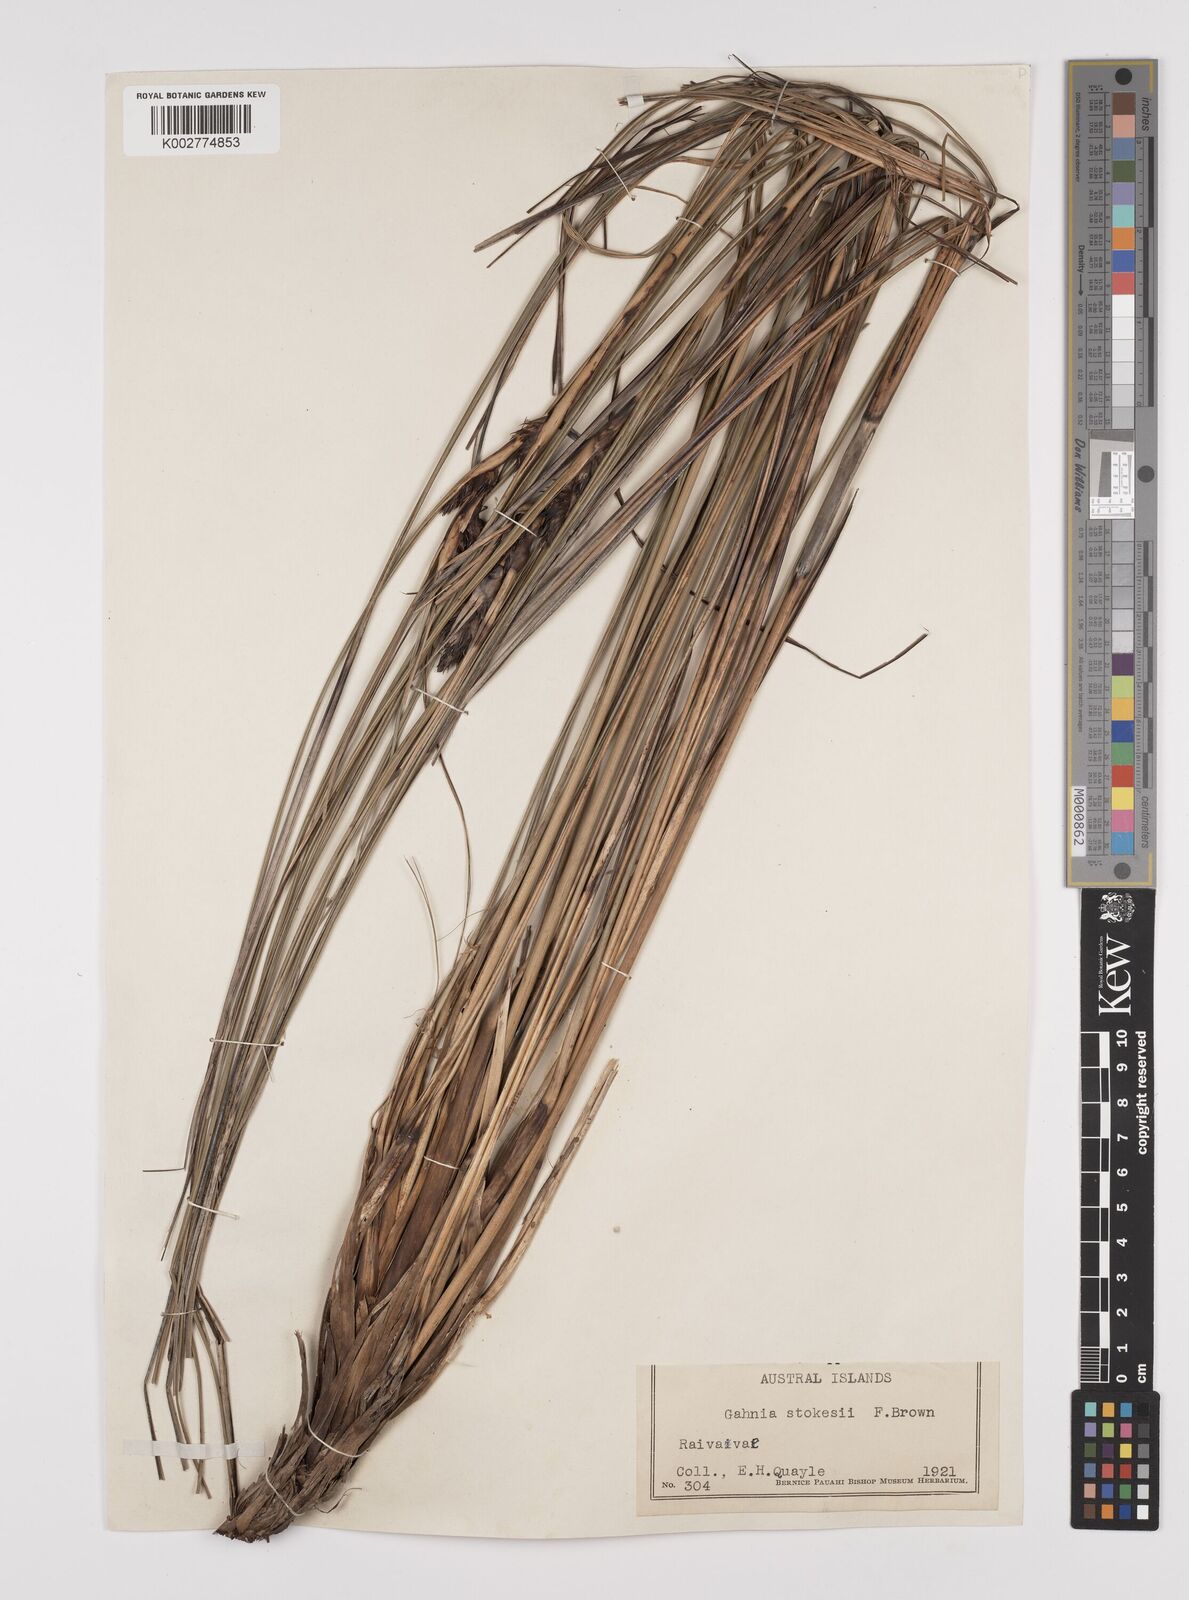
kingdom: Plantae
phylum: Tracheophyta
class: Liliopsida
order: Poales
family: Cyperaceae
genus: Gahnia
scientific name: Gahnia aspera
